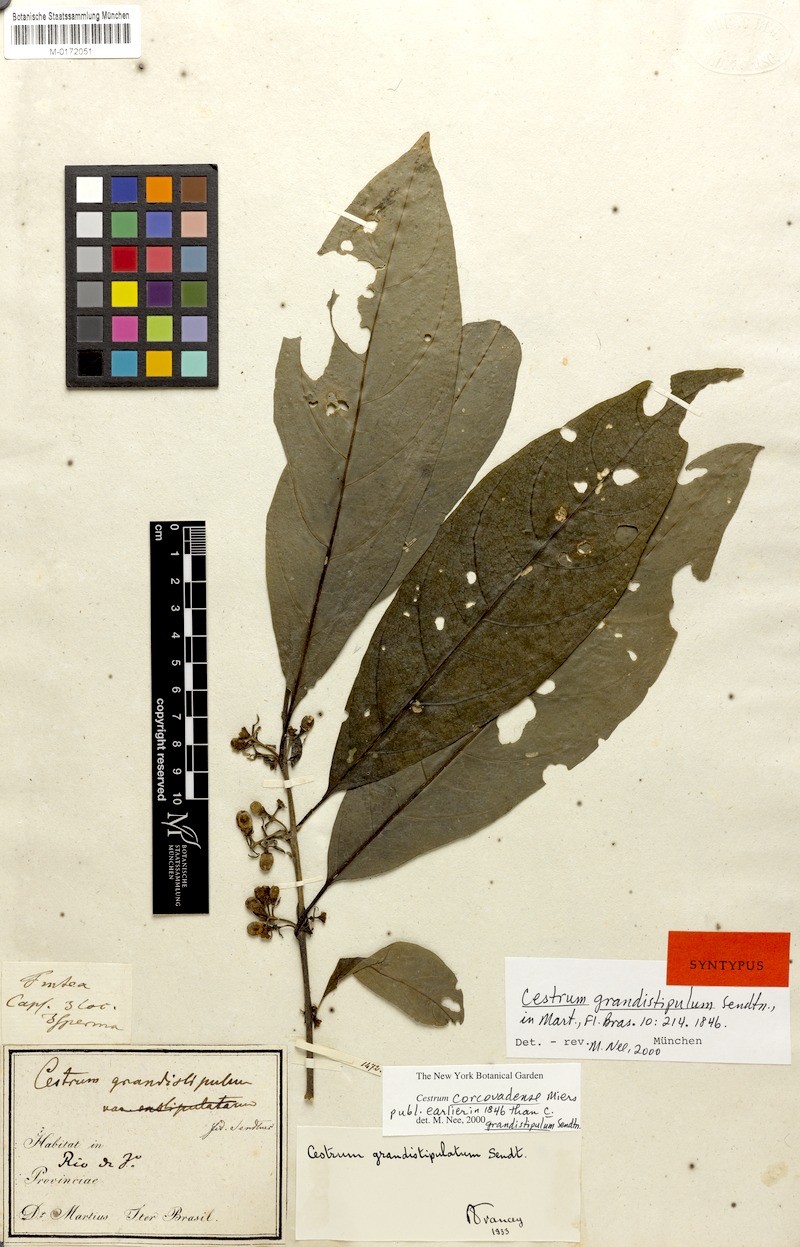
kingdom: Plantae
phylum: Tracheophyta
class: Magnoliopsida
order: Solanales
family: Solanaceae
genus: Cestrum
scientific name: Cestrum corcovadense
